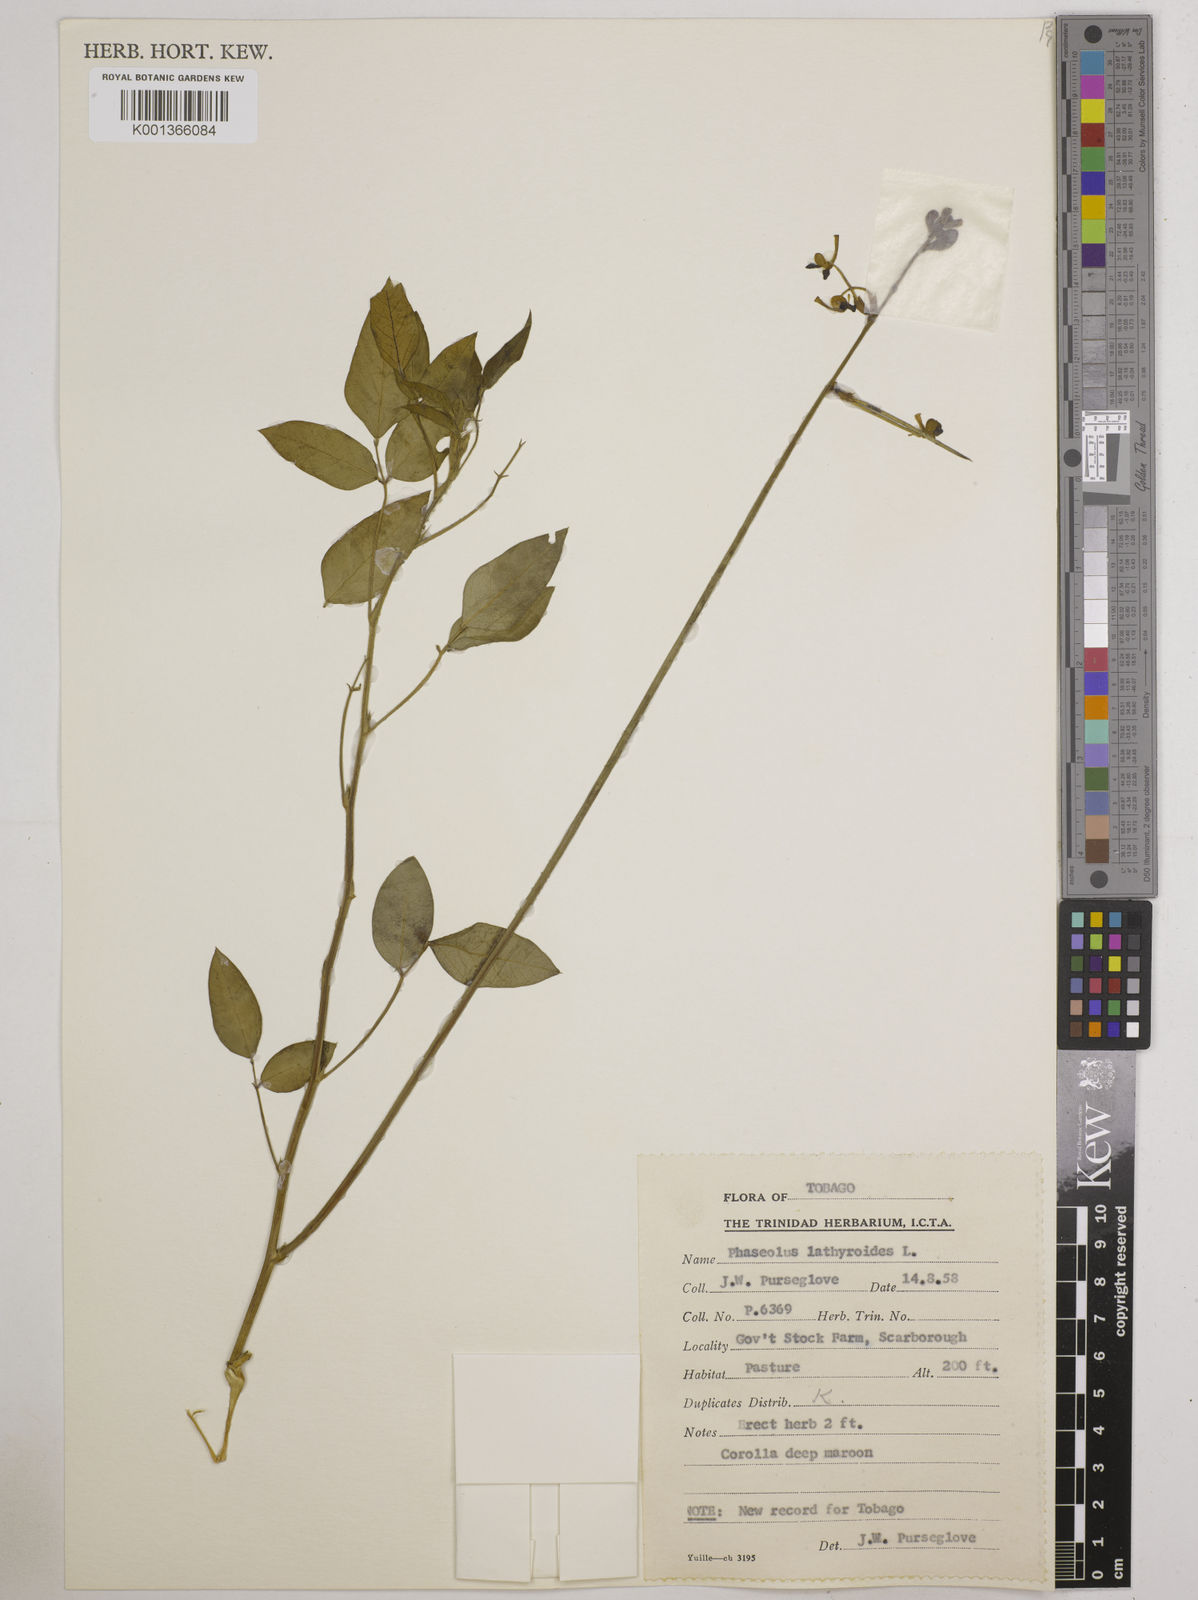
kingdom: Plantae
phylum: Tracheophyta
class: Magnoliopsida
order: Fabales
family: Fabaceae
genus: Macroptilium
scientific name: Macroptilium lathyroides
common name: Wild bushbean
